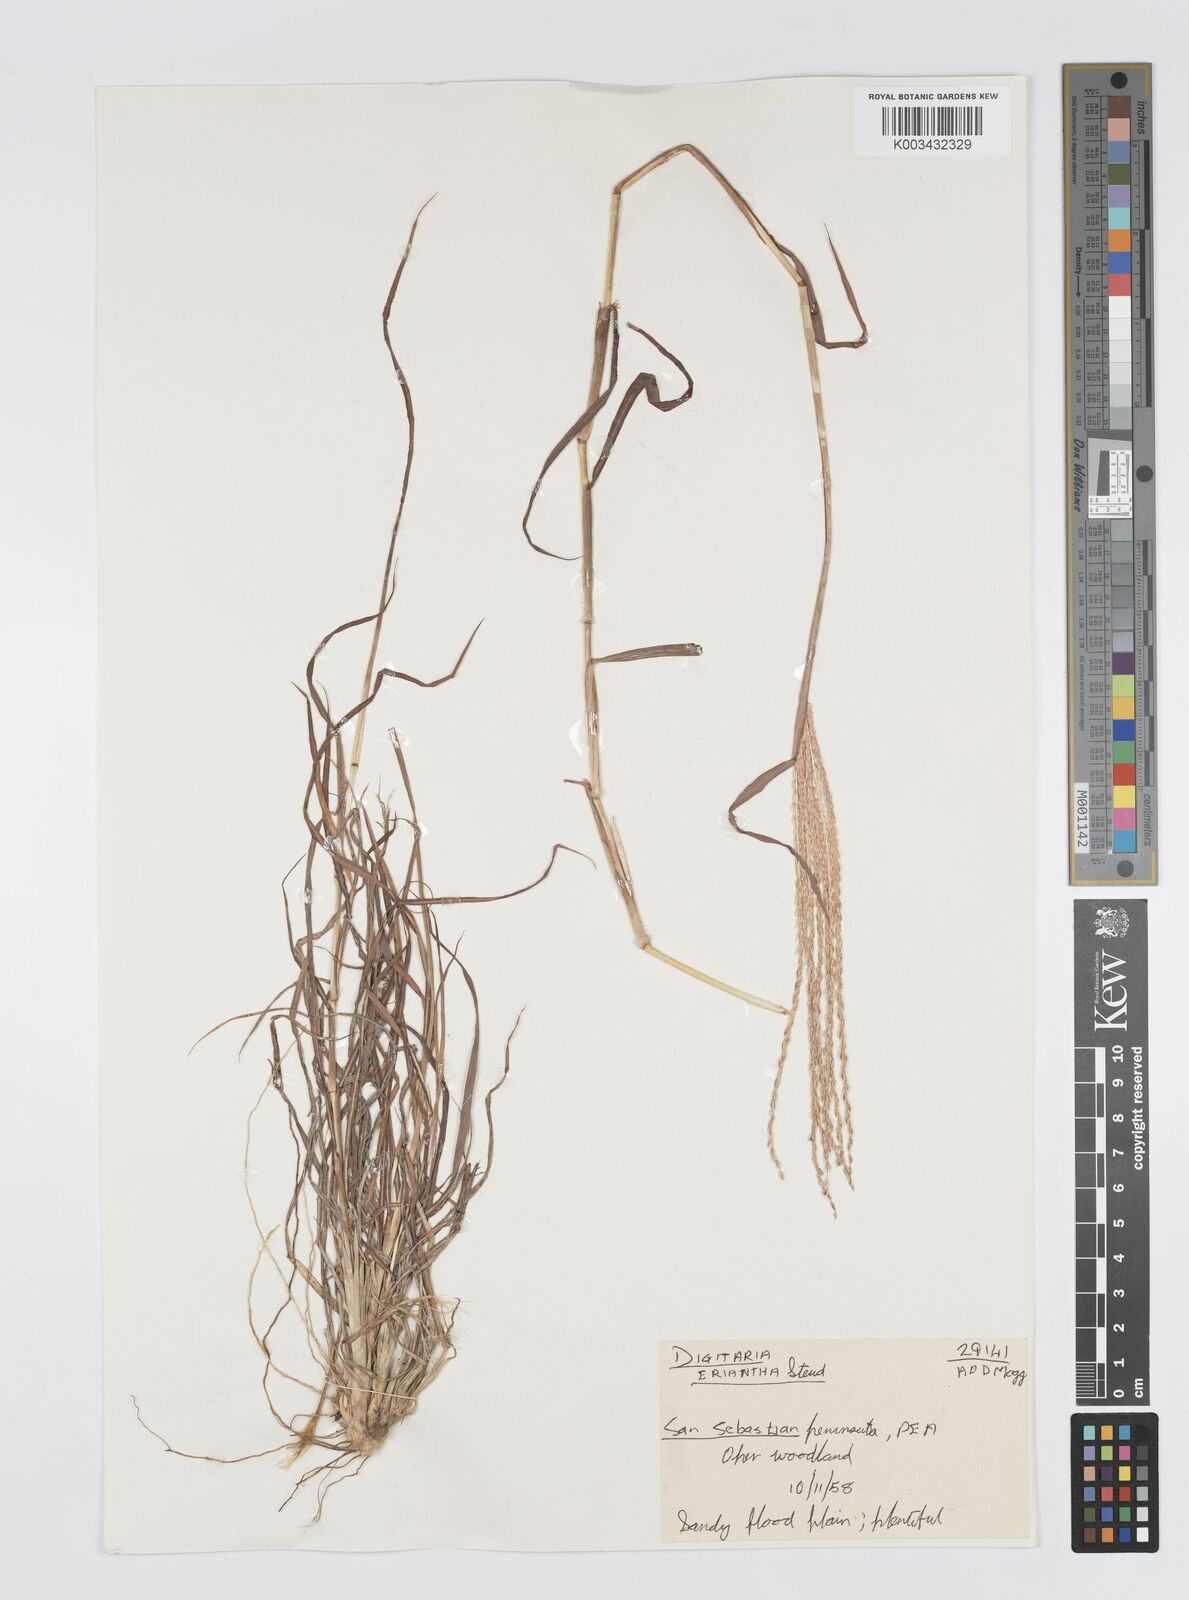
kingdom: Plantae
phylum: Tracheophyta
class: Liliopsida
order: Poales
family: Poaceae
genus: Digitaria
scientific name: Digitaria eriantha
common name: Digitgrass
